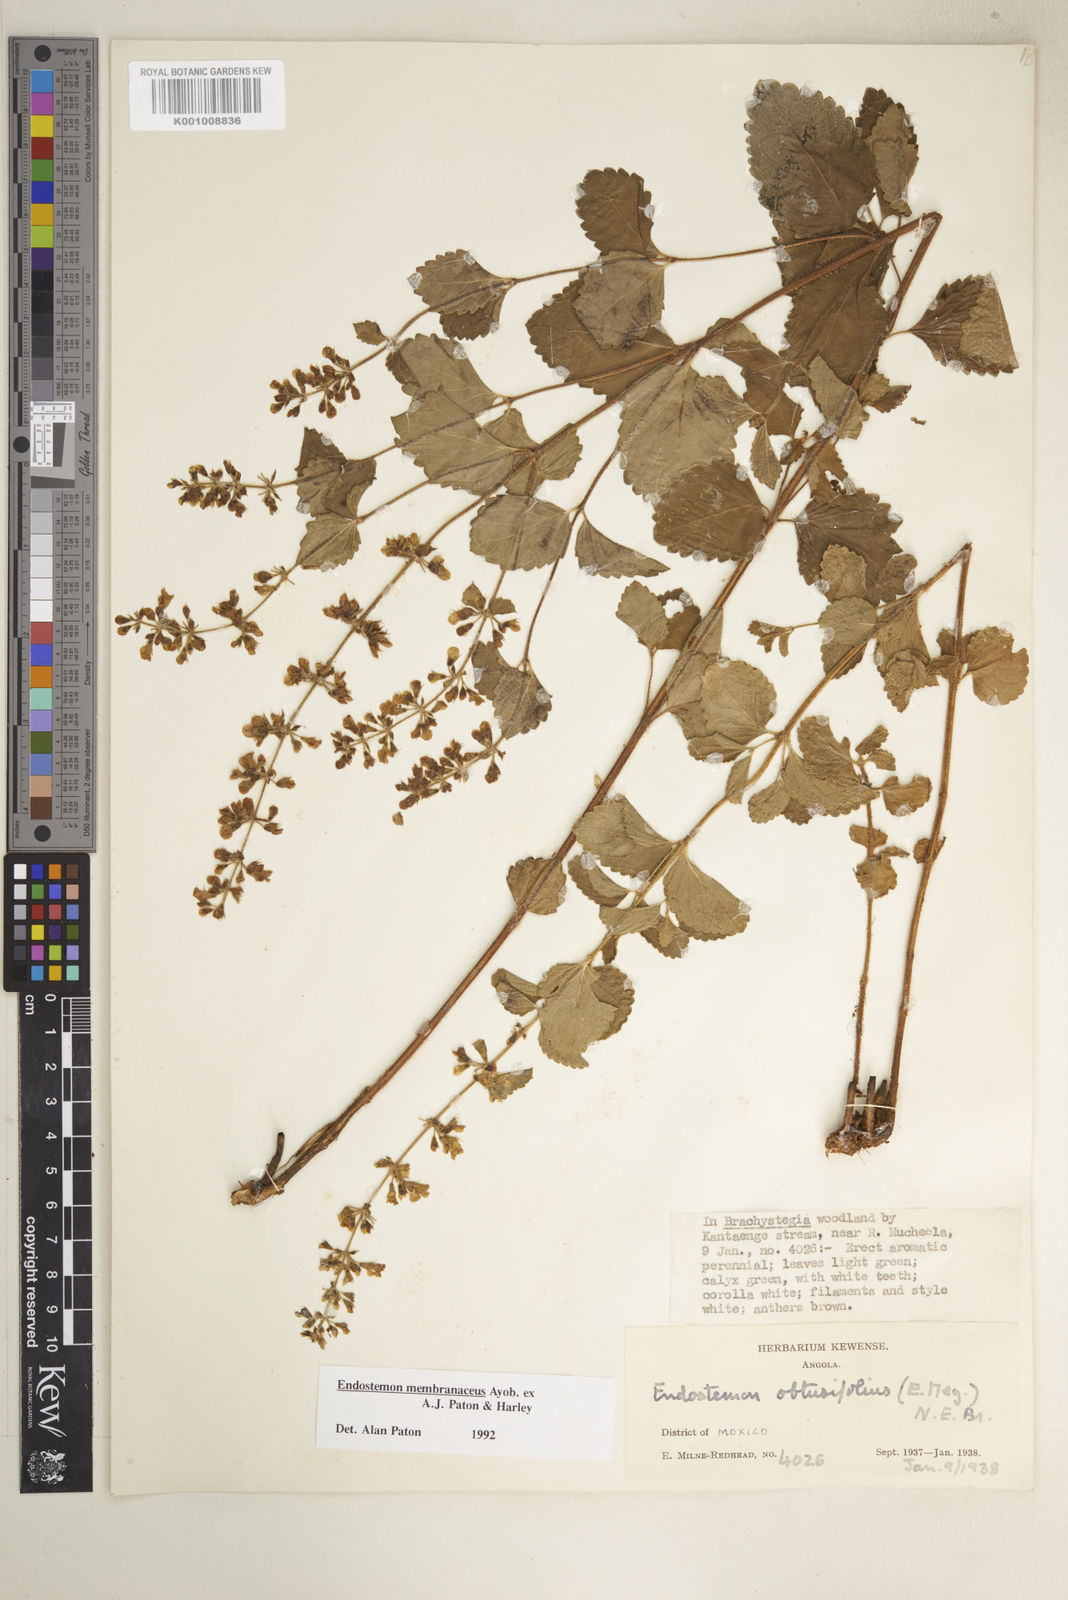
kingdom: Plantae
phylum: Tracheophyta
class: Magnoliopsida
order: Lamiales
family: Lamiaceae
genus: Endostemon
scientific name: Endostemon membranaceus
